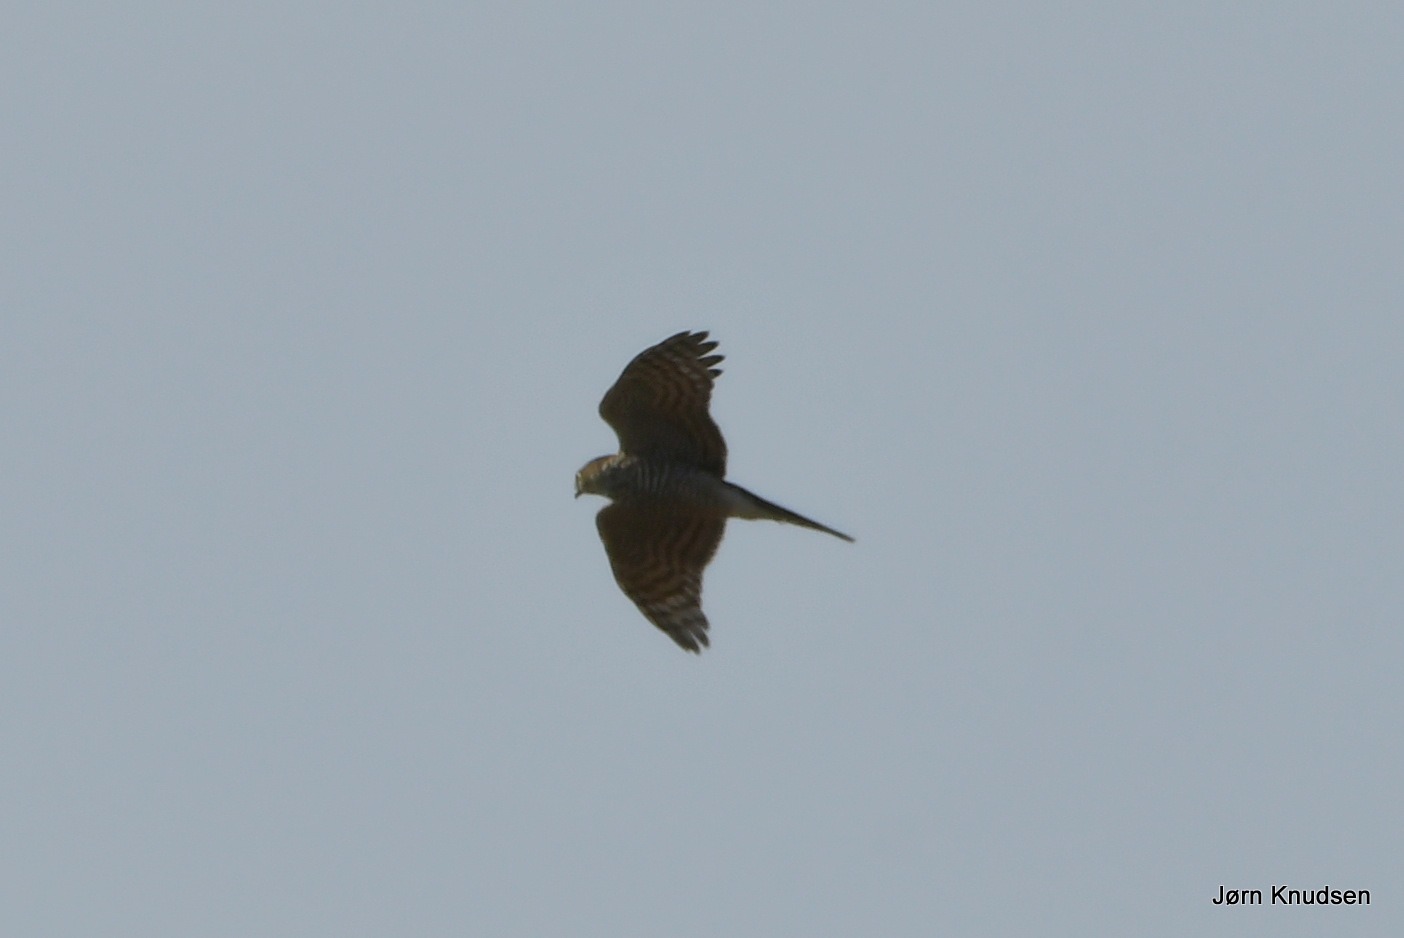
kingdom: Animalia
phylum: Chordata
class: Aves
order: Accipitriformes
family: Accipitridae
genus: Accipiter
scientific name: Accipiter nisus
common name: Spurvehøg
